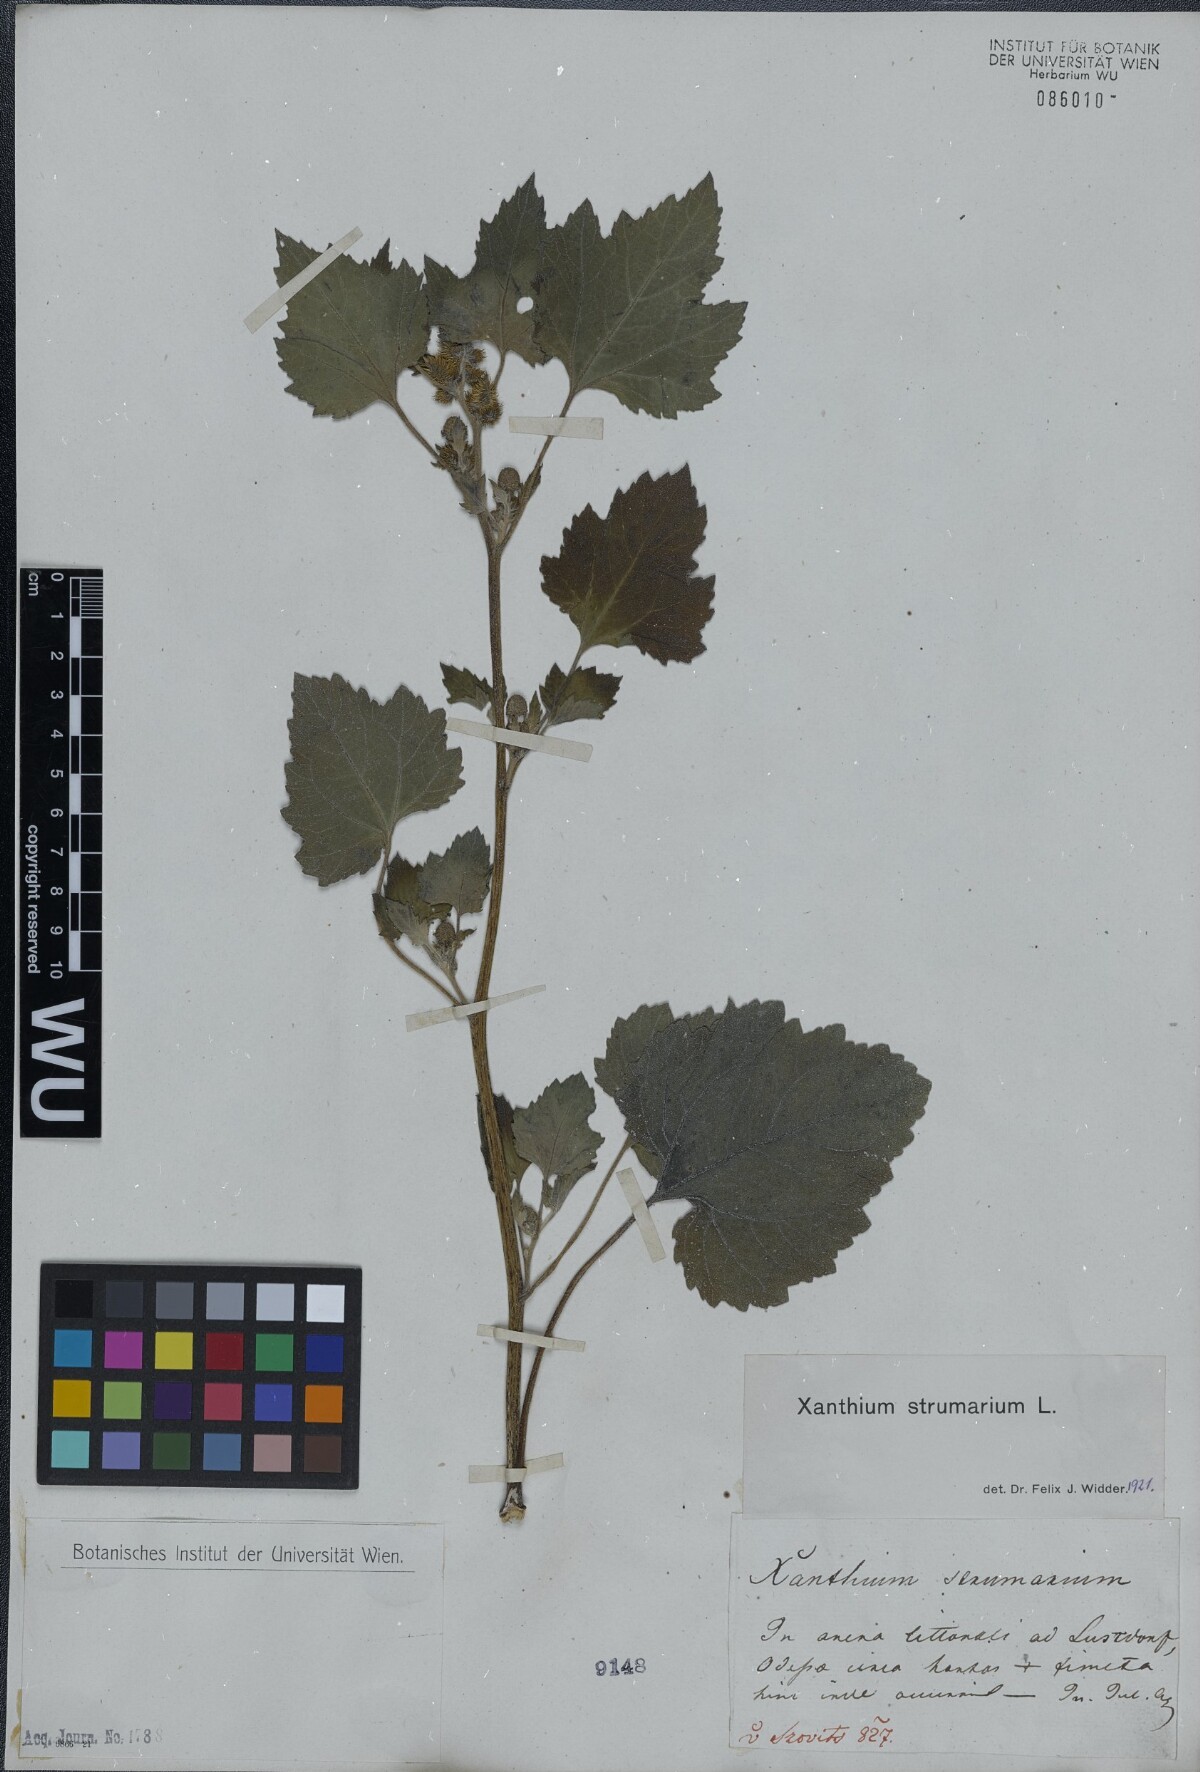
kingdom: Plantae
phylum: Tracheophyta
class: Magnoliopsida
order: Asterales
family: Asteraceae
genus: Xanthium
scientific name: Xanthium strumarium
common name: Rough cocklebur
